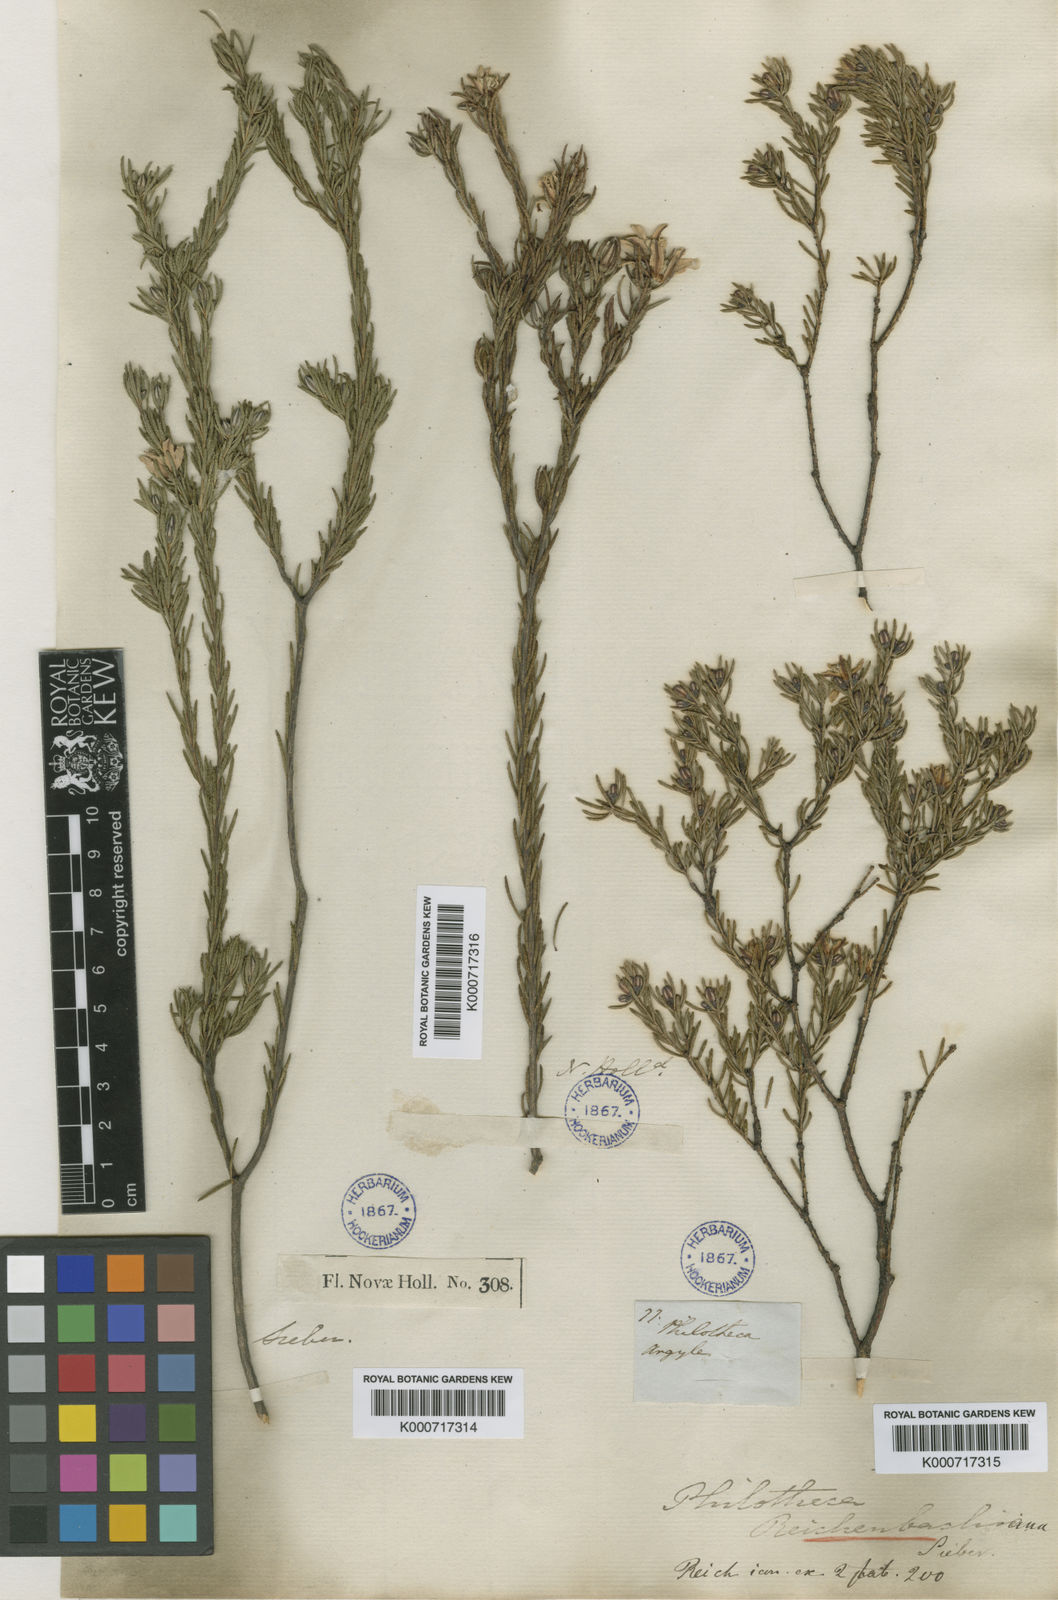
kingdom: Plantae
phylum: Tracheophyta
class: Magnoliopsida
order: Sapindales
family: Rutaceae
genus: Philotheca
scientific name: Philotheca
